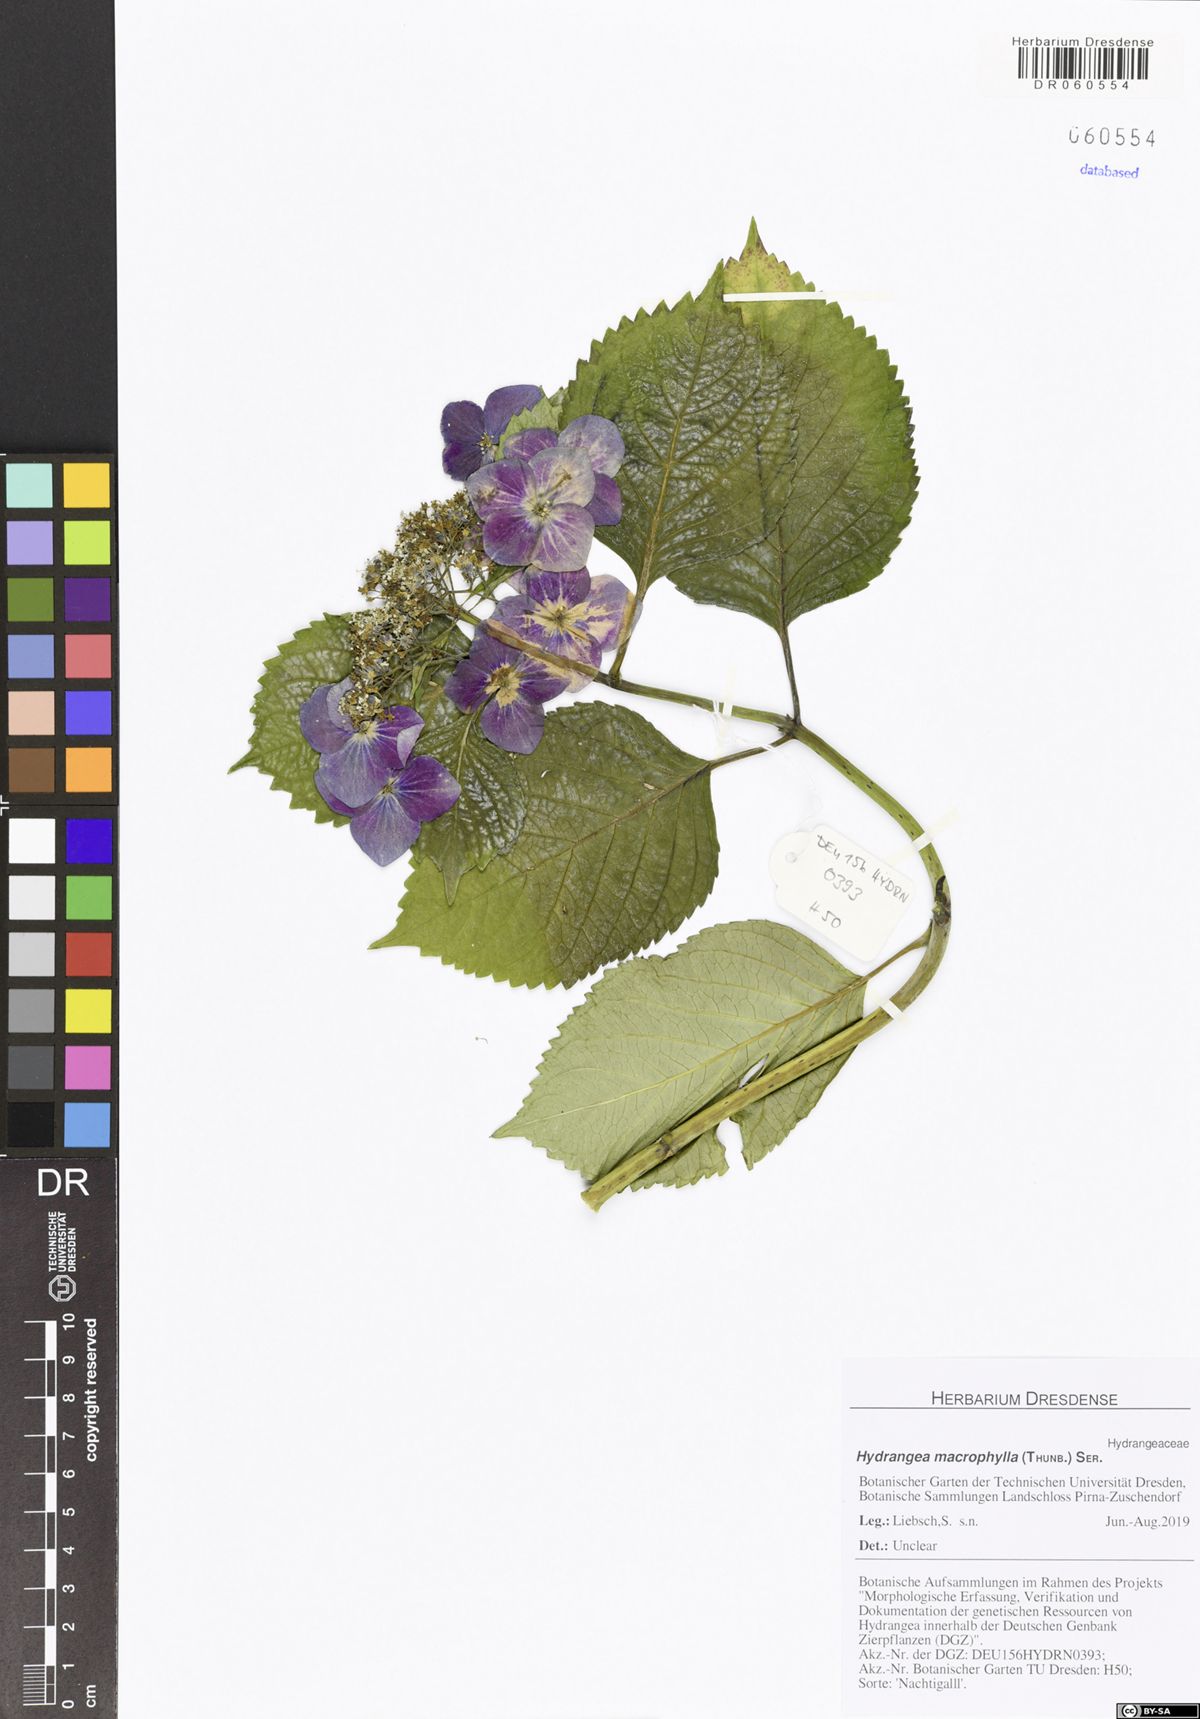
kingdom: Plantae
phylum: Tracheophyta
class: Magnoliopsida
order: Cornales
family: Hydrangeaceae
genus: Hydrangea
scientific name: Hydrangea macrophylla
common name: Hydrangea
